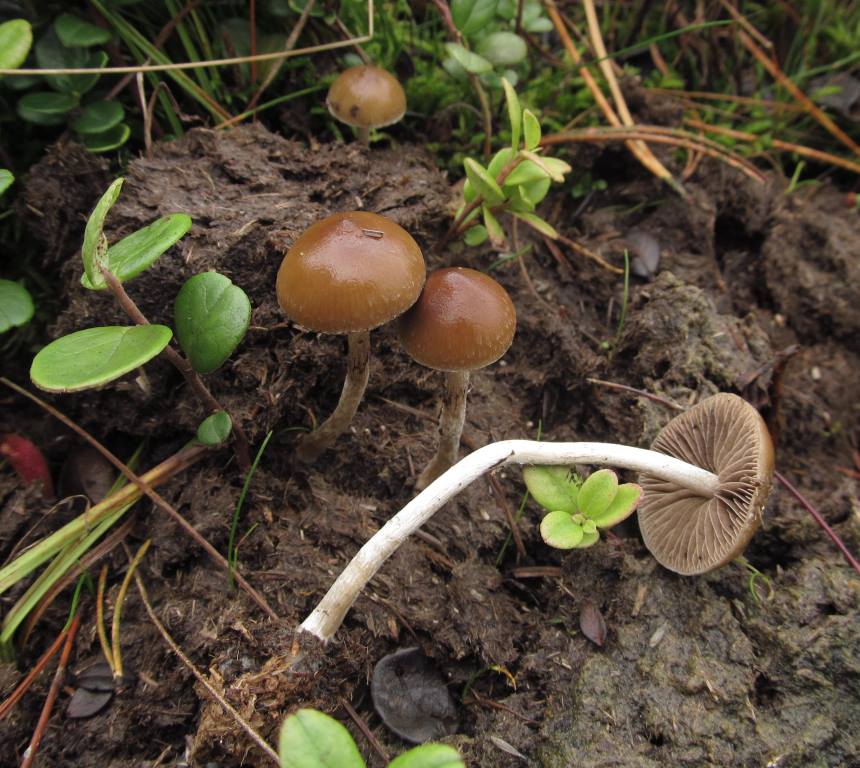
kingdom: Fungi
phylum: Basidiomycota
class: Agaricomycetes
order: Agaricales
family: Hymenogastraceae
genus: Psilocybe
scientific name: Psilocybe fimetaria
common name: prægtig nøgenhat
